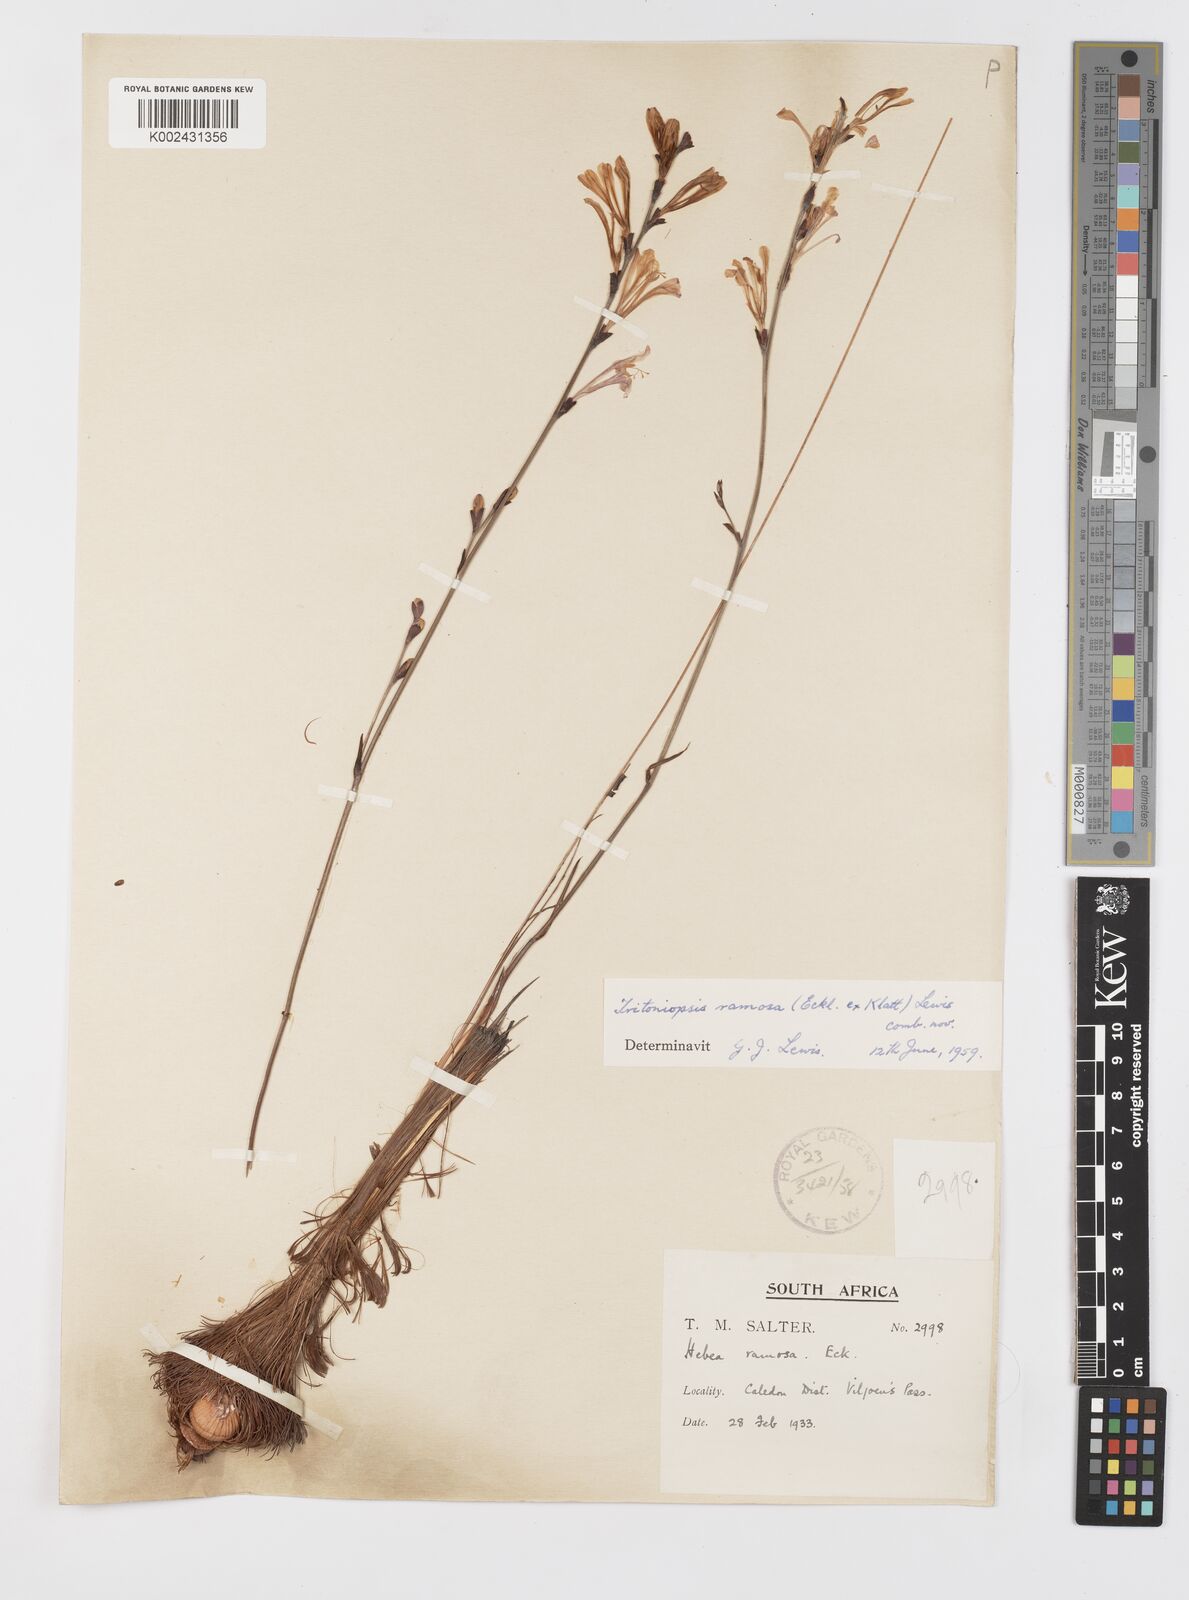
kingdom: Plantae
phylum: Tracheophyta
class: Liliopsida
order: Asparagales
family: Iridaceae
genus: Tritoniopsis
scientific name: Tritoniopsis ramosa
